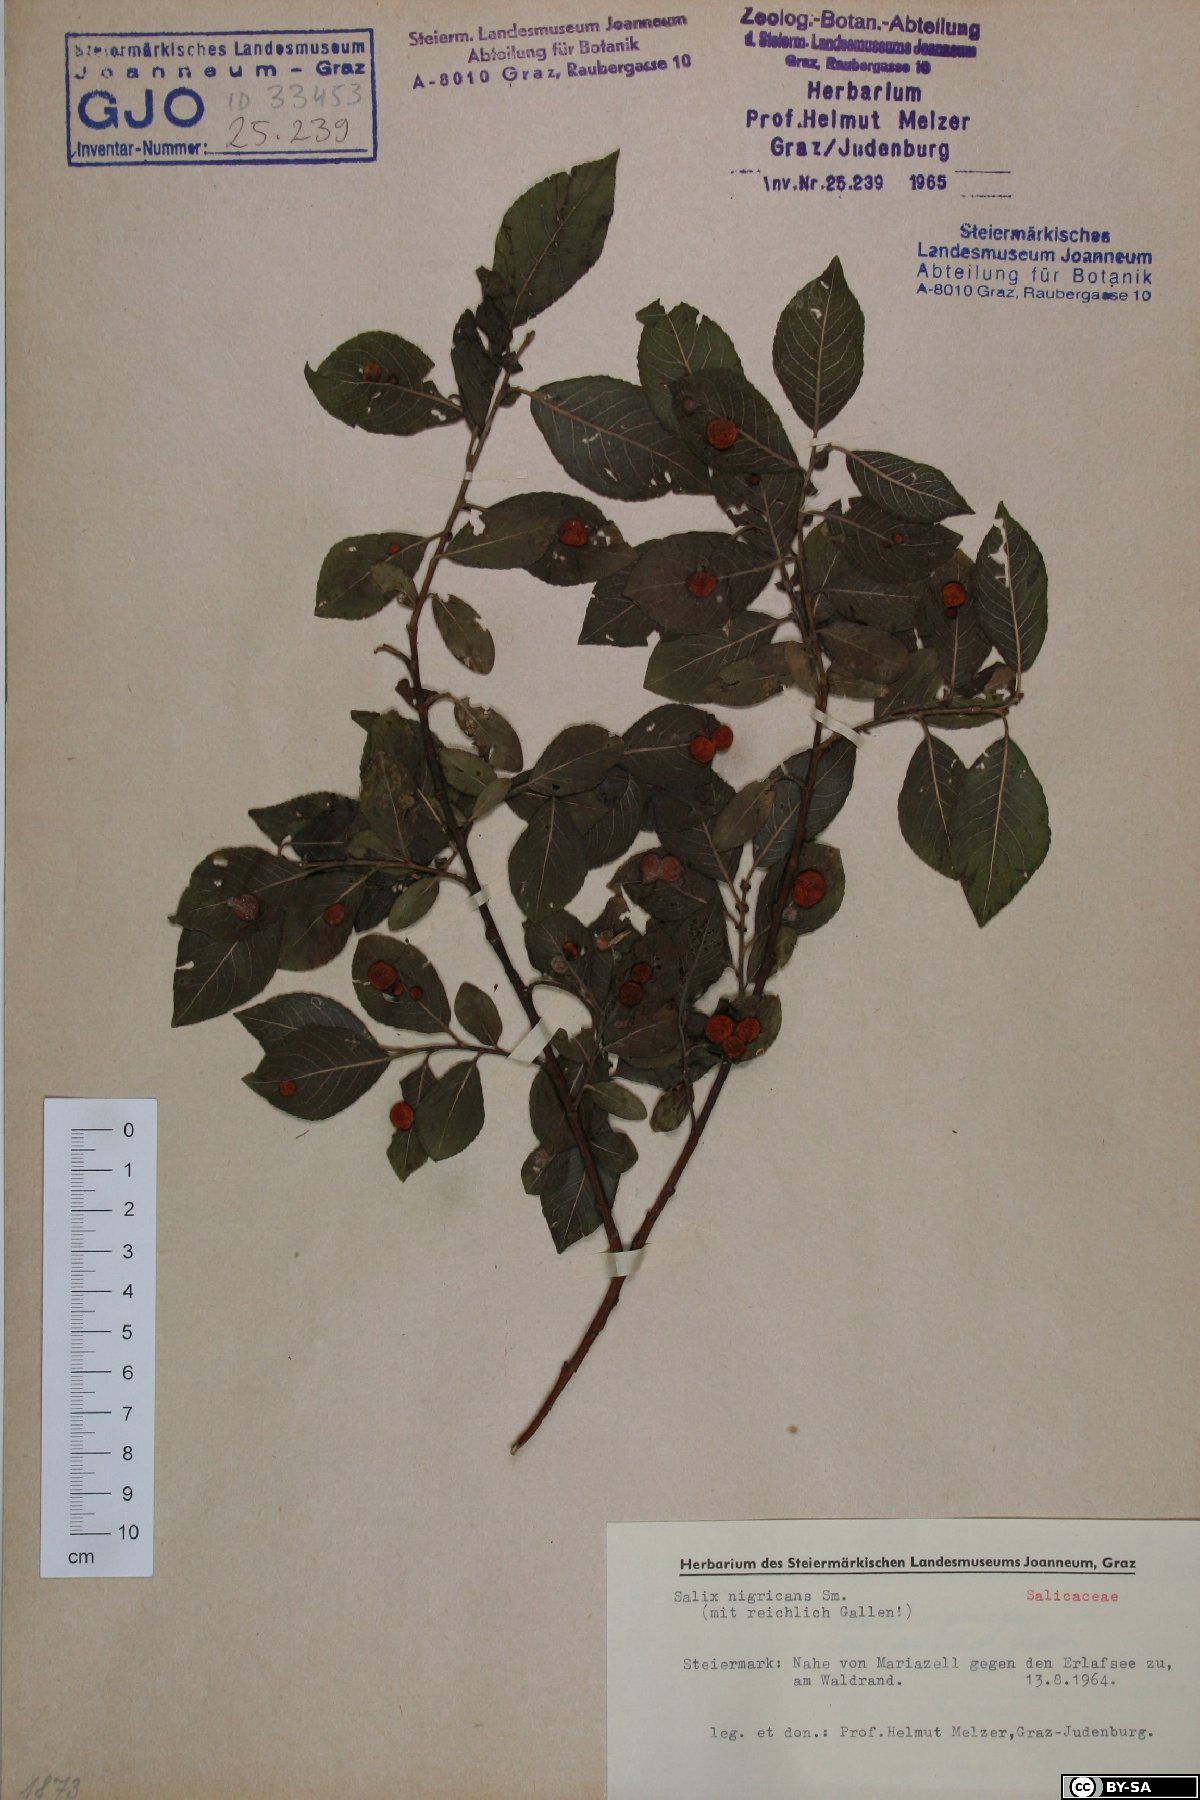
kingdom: Plantae
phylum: Tracheophyta
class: Magnoliopsida
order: Malpighiales
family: Salicaceae
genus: Salix
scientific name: Salix myrsinifolia
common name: Dark-leaved willow
